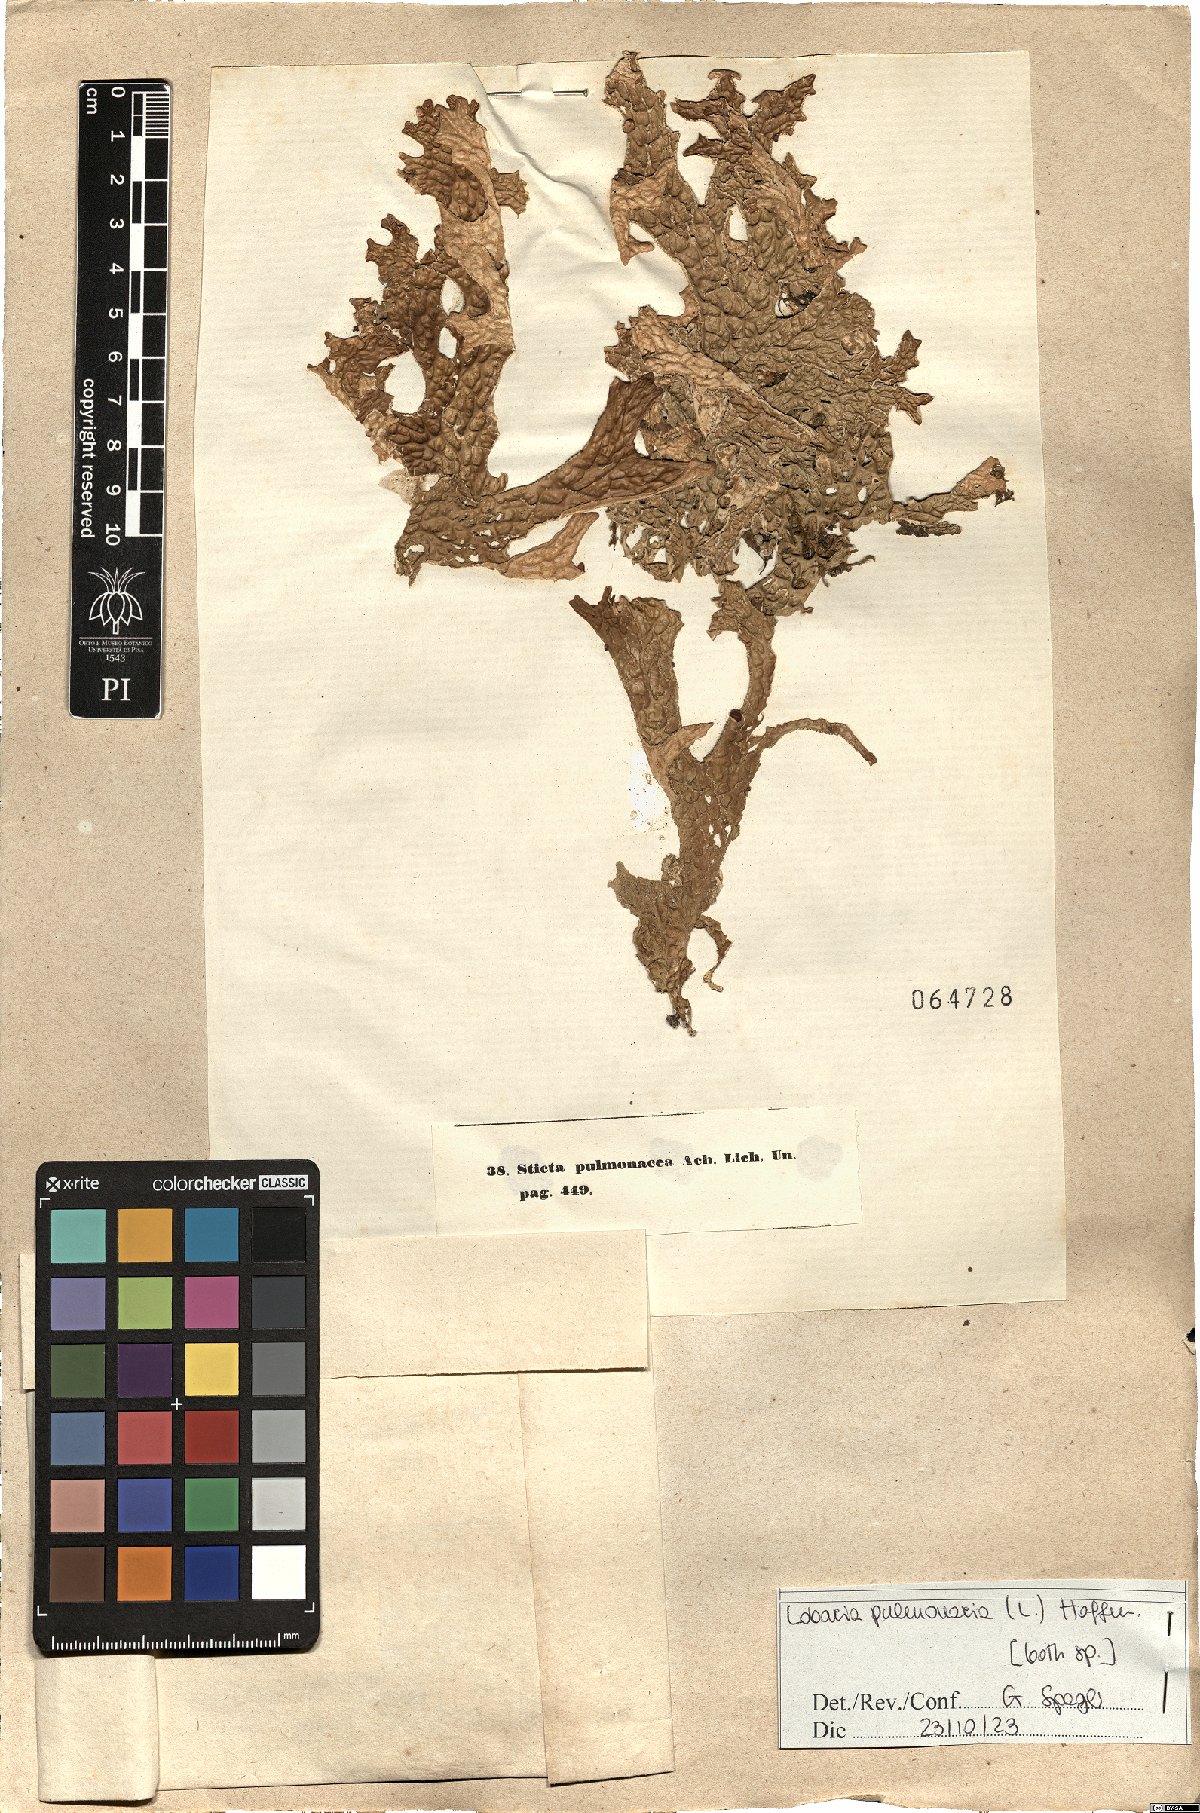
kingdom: Fungi
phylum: Ascomycota
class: Lecanoromycetes
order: Peltigerales
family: Lobariaceae
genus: Lobaria
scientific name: Lobaria pulmonaria
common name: Lungwort
